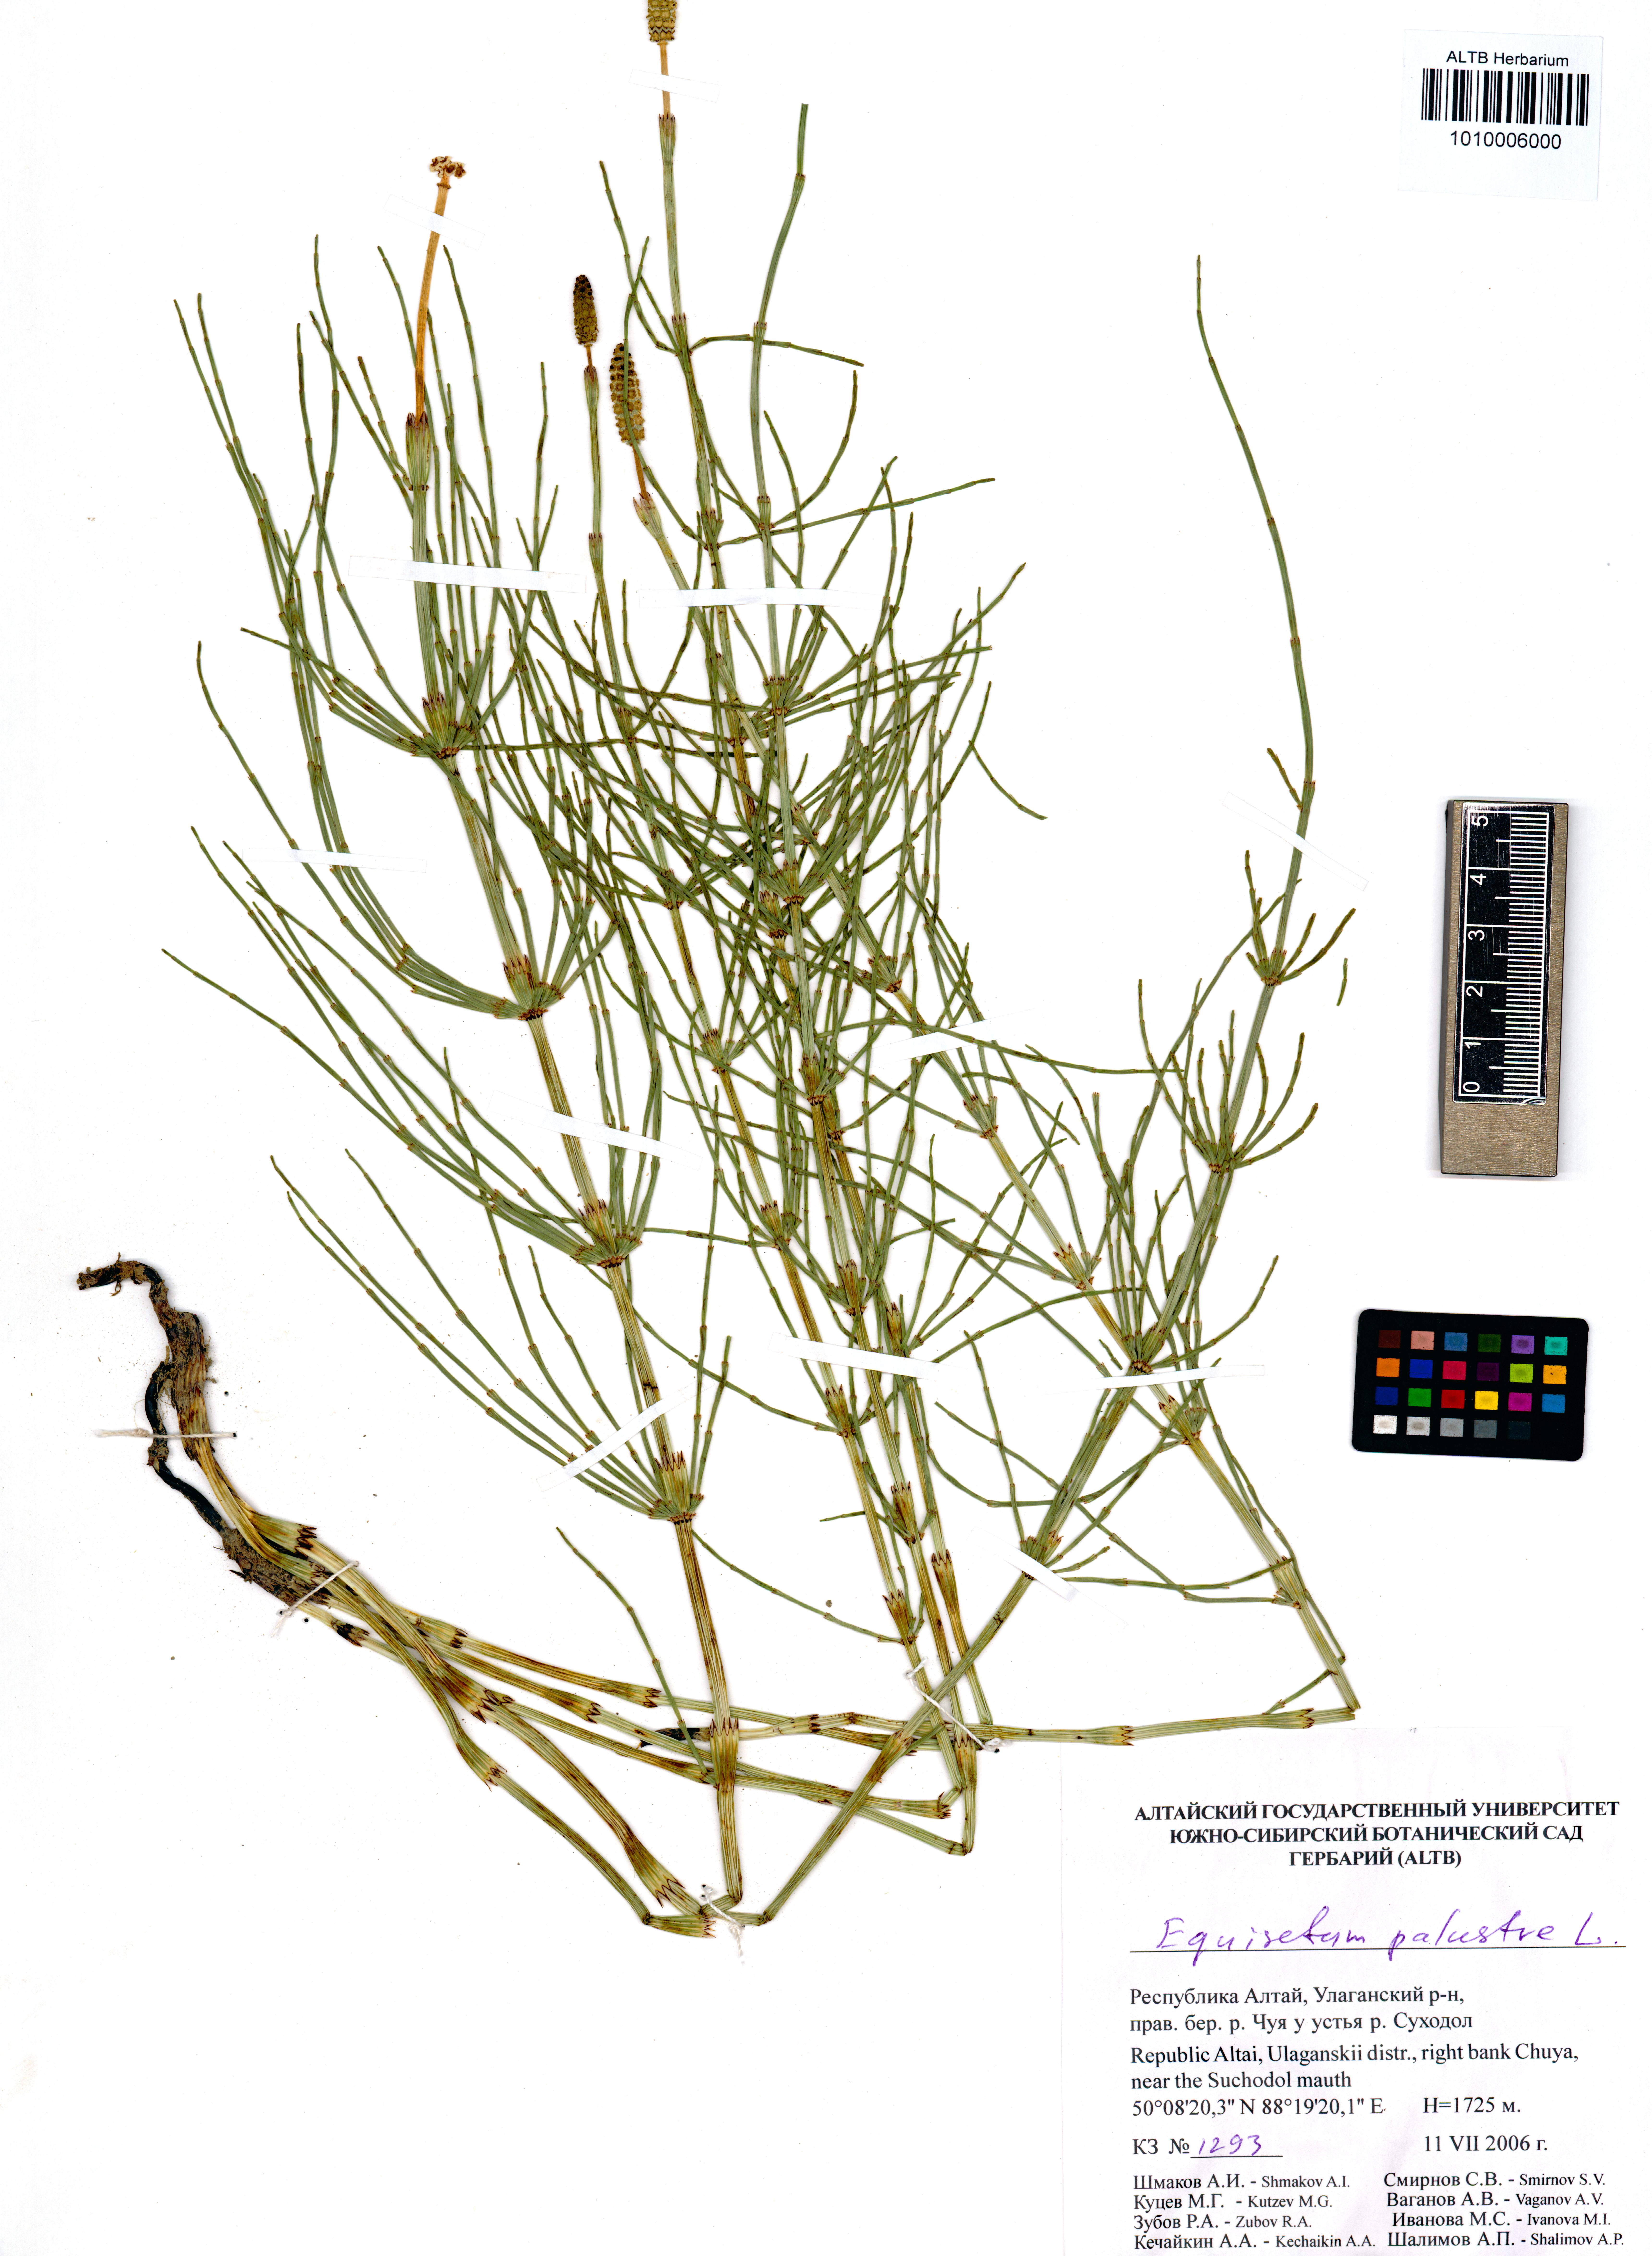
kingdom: Plantae
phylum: Tracheophyta
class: Polypodiopsida
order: Equisetales
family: Equisetaceae
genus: Equisetum
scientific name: Equisetum palustre
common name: Marsh horsetail
